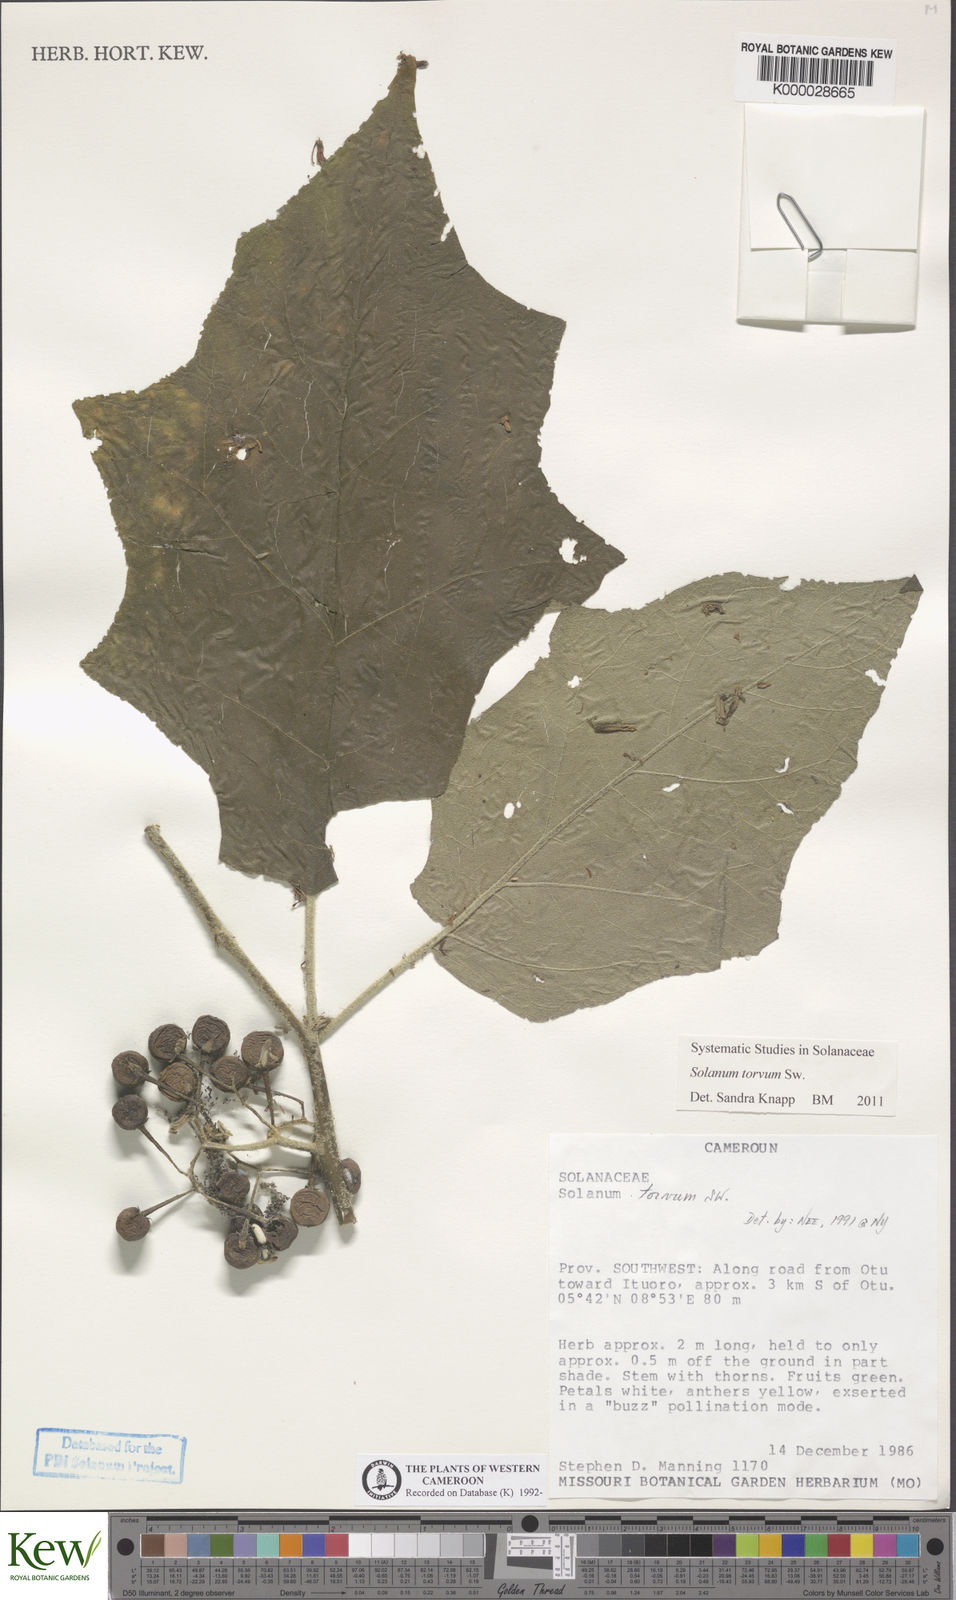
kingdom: Plantae
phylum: Tracheophyta
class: Magnoliopsida
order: Solanales
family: Solanaceae
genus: Solanum
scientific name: Solanum torvum
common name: Turkey berry
